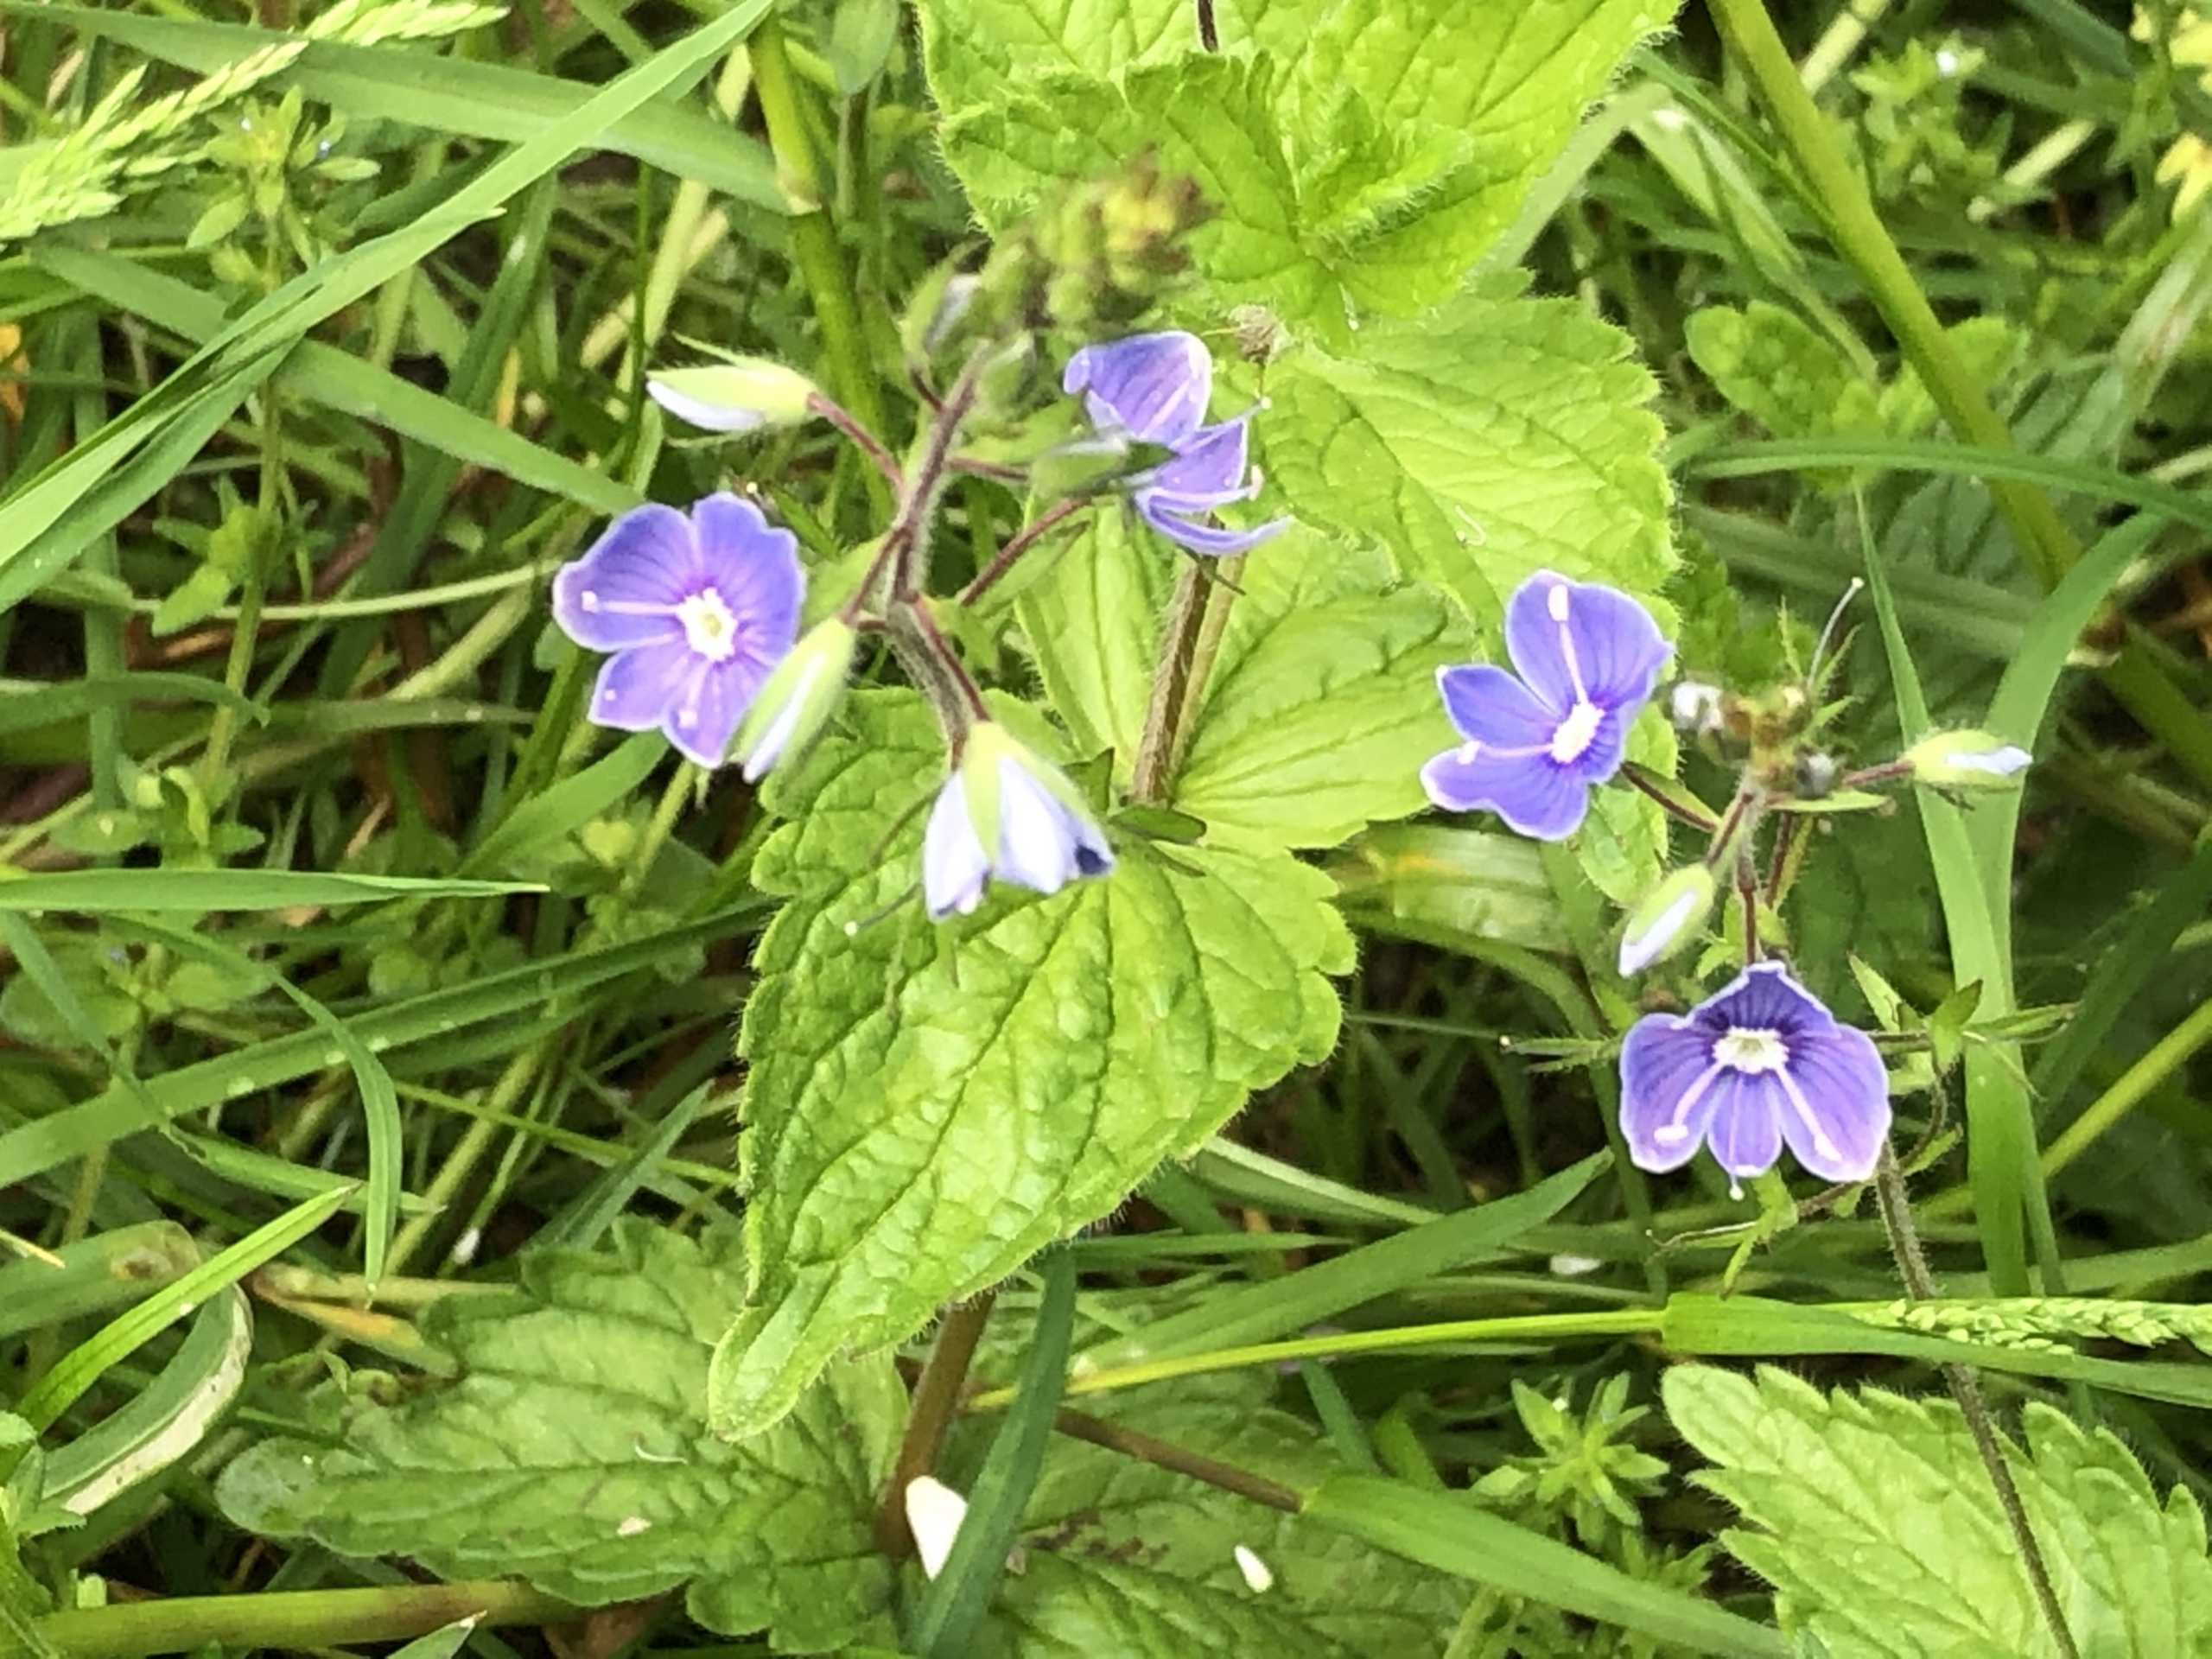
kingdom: Plantae
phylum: Tracheophyta
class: Magnoliopsida
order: Lamiales
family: Plantaginaceae
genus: Veronica
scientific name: Veronica chamaedrys
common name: Tveskægget ærenpris
